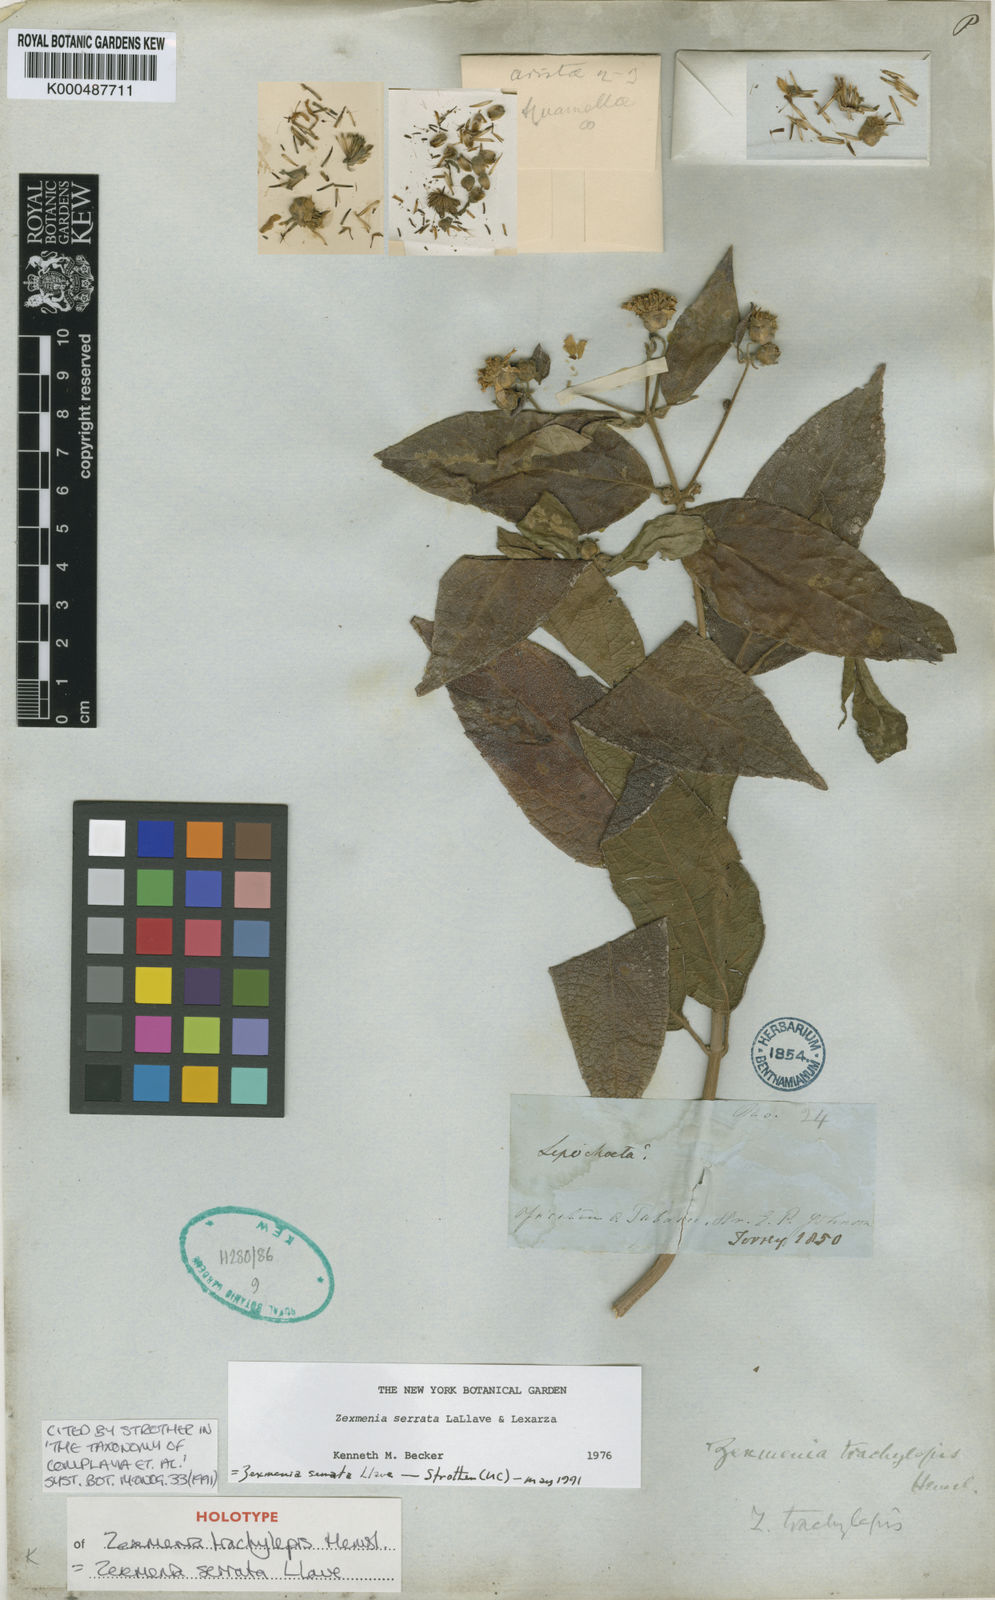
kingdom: Plantae
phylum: Tracheophyta
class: Magnoliopsida
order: Asterales
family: Asteraceae
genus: Zexmenia
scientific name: Zexmenia serrata
